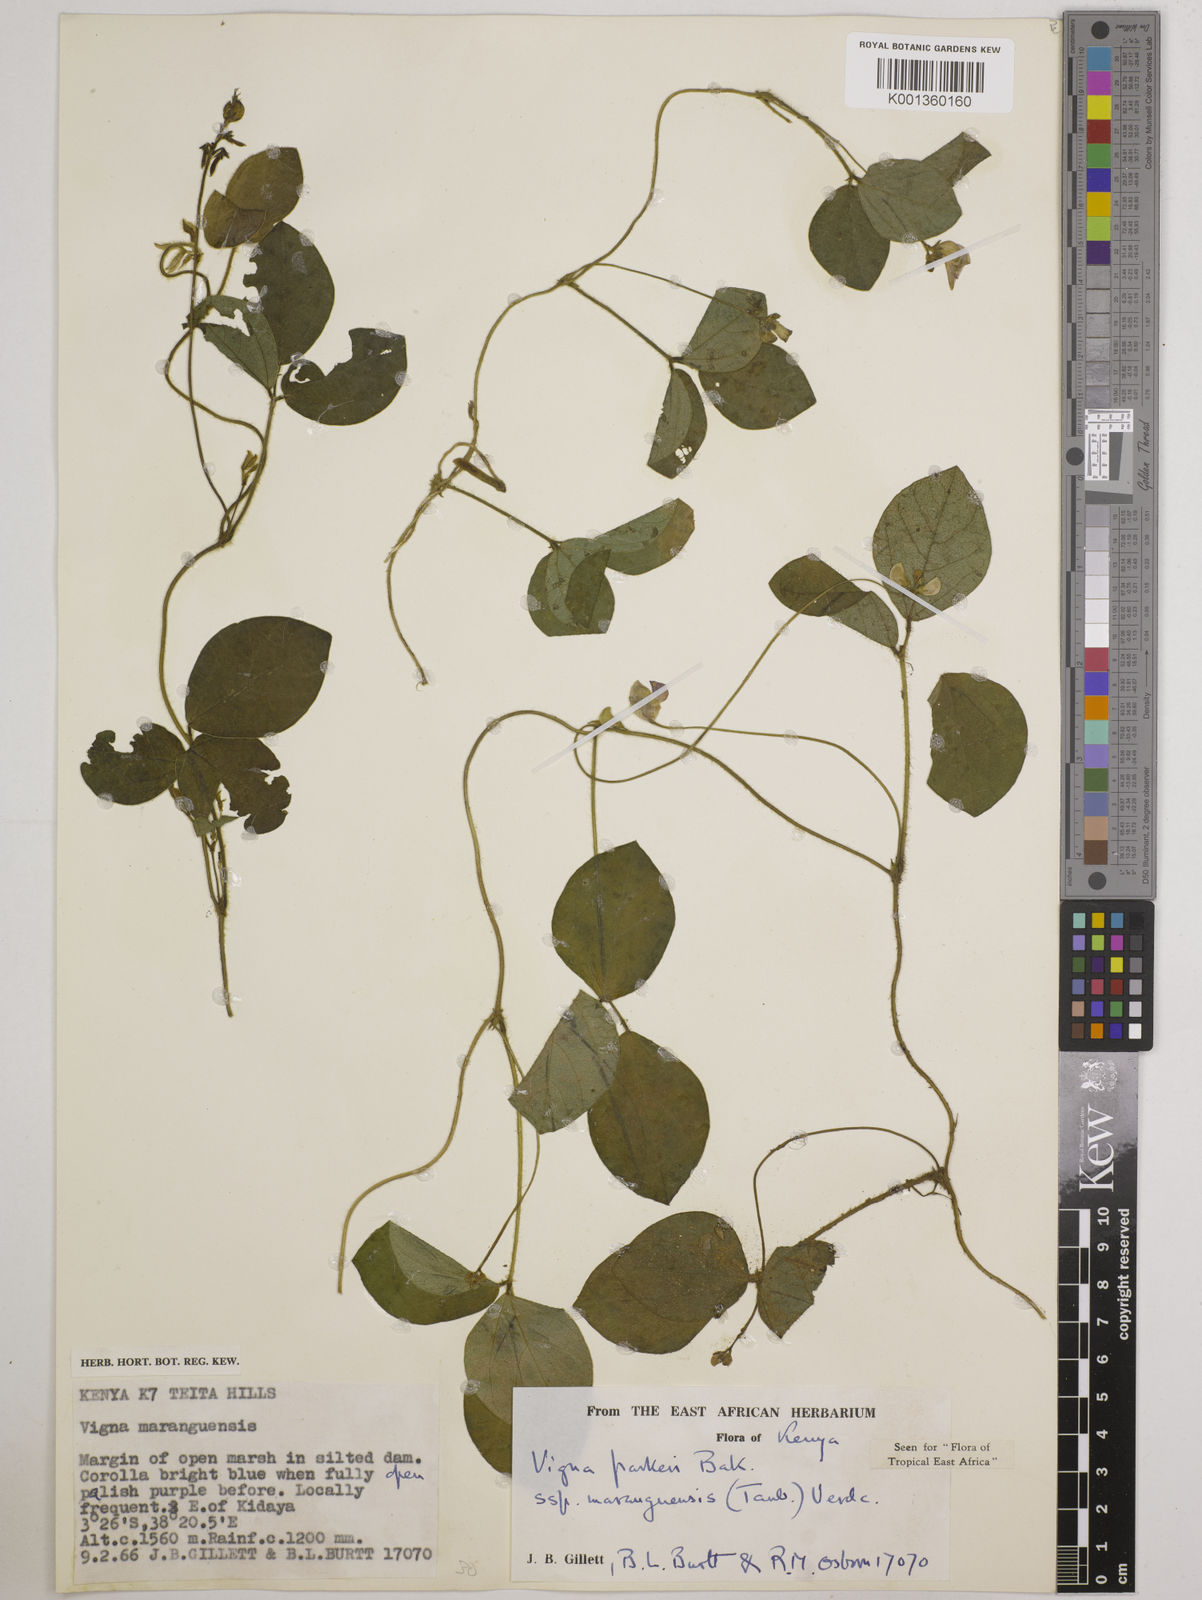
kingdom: Plantae
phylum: Tracheophyta
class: Magnoliopsida
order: Fabales
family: Fabaceae
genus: Vigna
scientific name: Vigna
